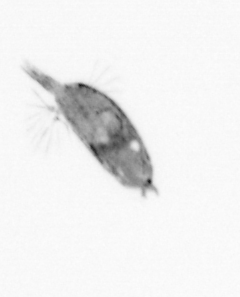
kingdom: Animalia
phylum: Arthropoda
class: Maxillopoda
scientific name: Maxillopoda
